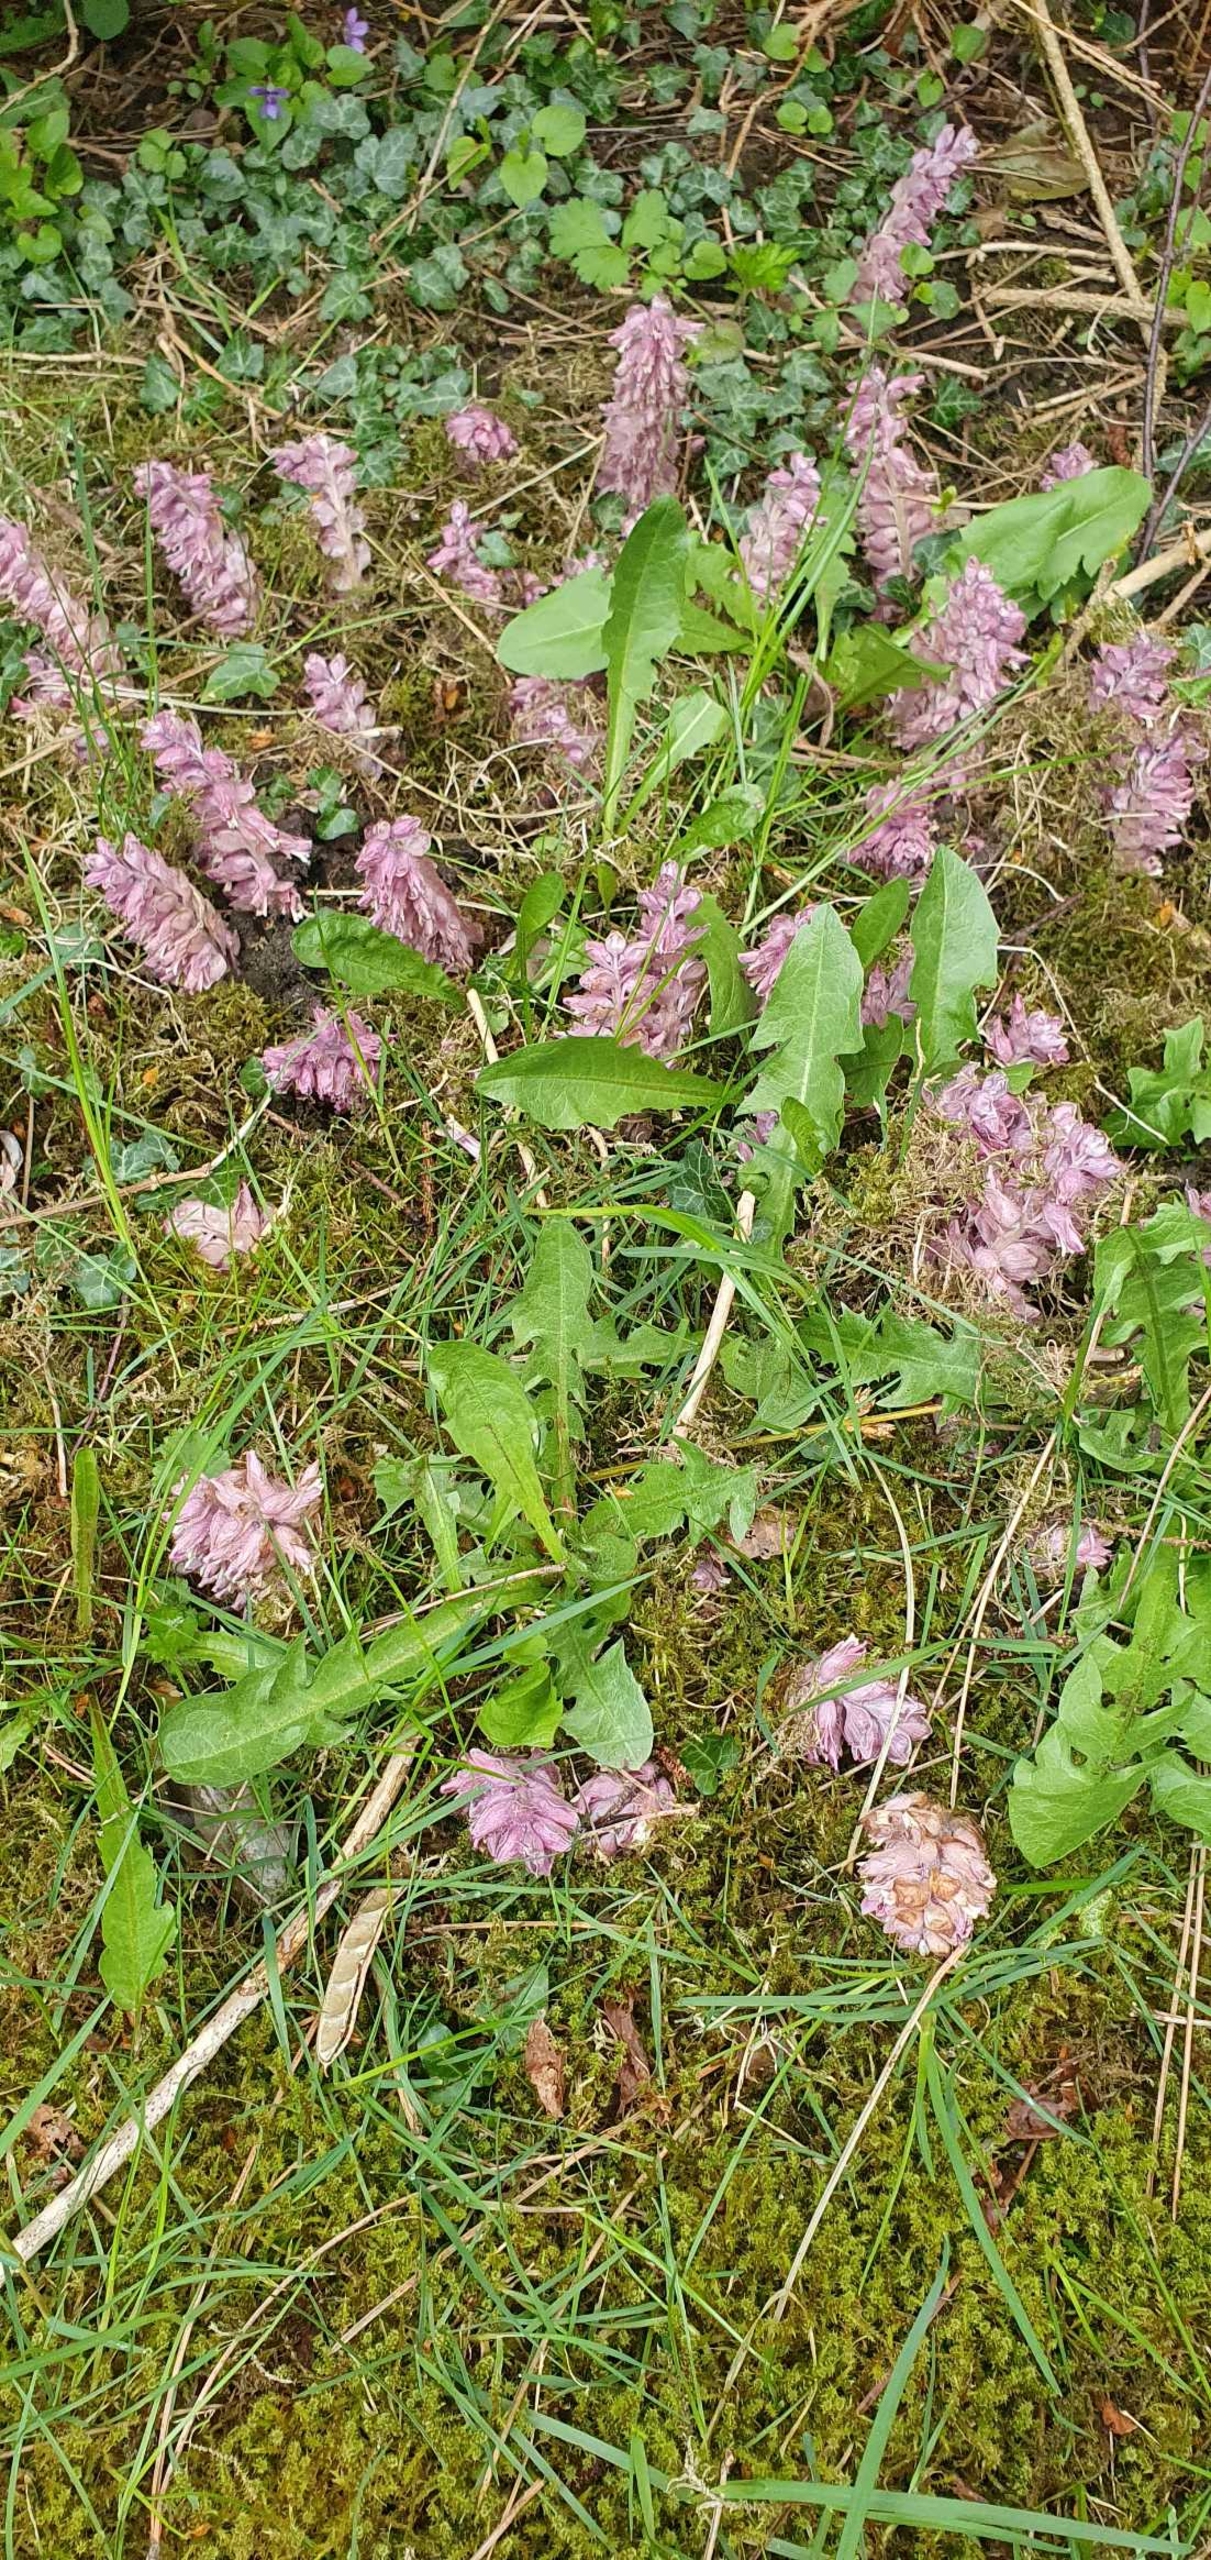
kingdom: Plantae
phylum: Tracheophyta
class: Magnoliopsida
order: Lamiales
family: Orobanchaceae
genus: Lathraea
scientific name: Lathraea squamaria
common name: Skælrod
